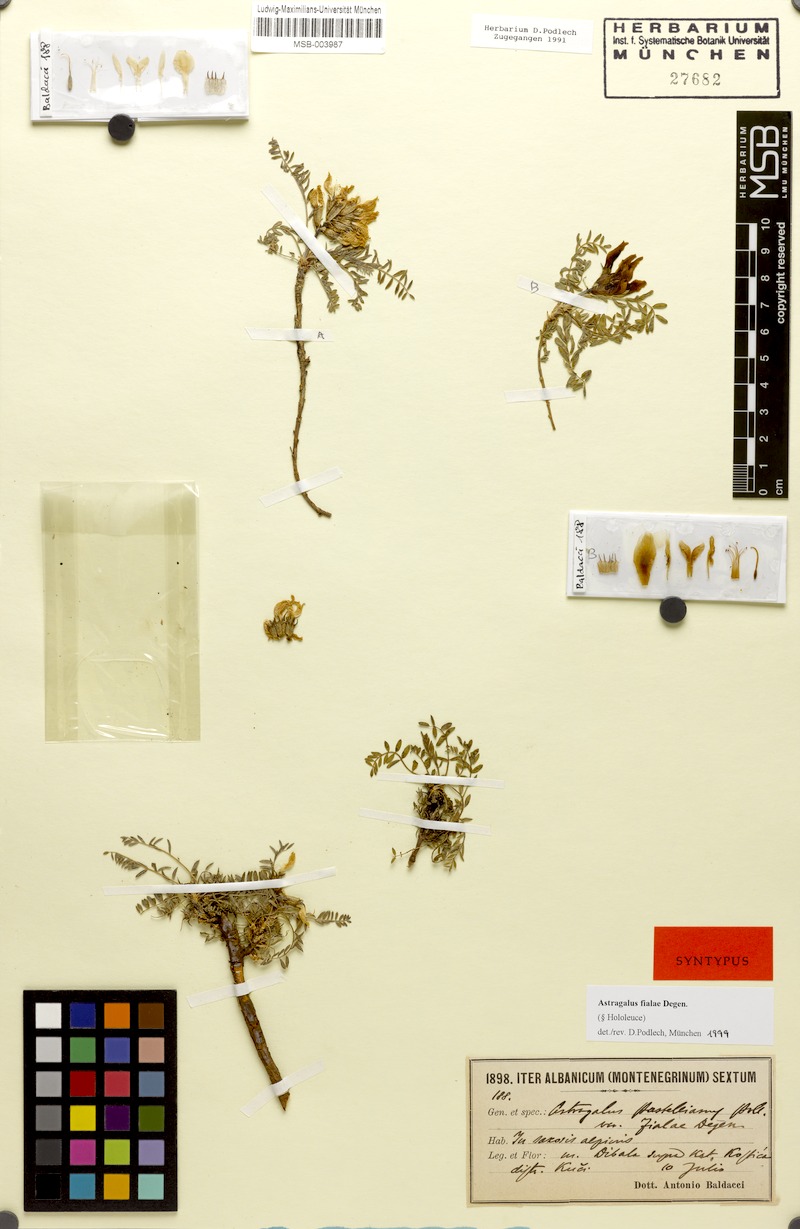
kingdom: Plantae
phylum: Tracheophyta
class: Magnoliopsida
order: Fabales
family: Fabaceae
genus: Astragalus
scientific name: Astragalus fialae
